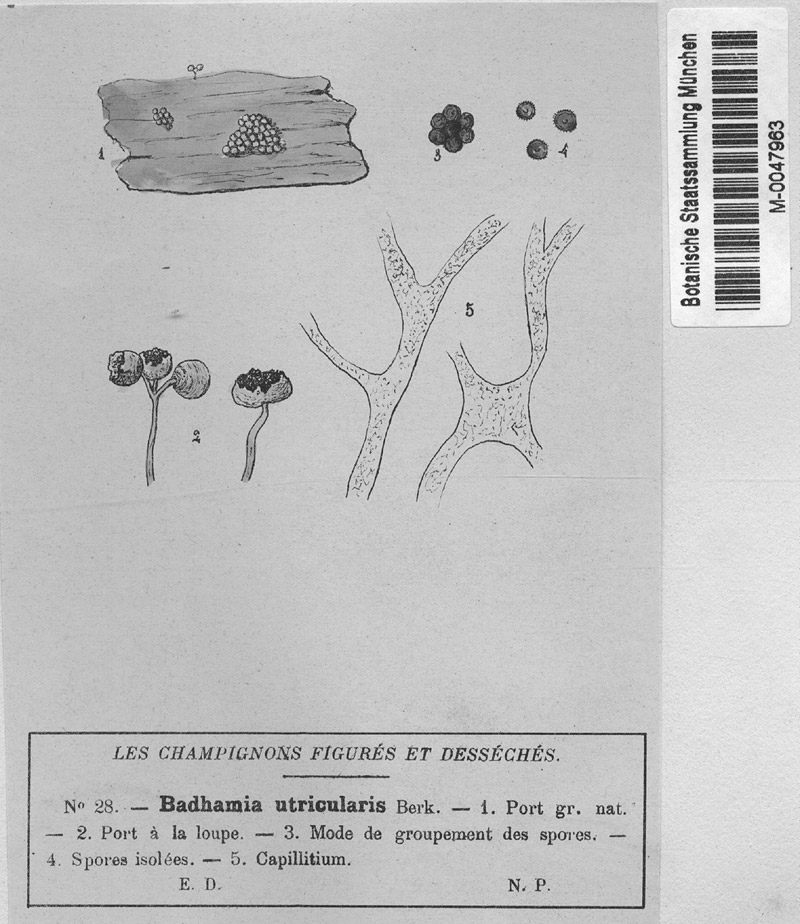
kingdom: Protozoa
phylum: Mycetozoa
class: Myxomycetes
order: Physarales
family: Physaraceae
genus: Badhamia
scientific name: Badhamia utricularis
